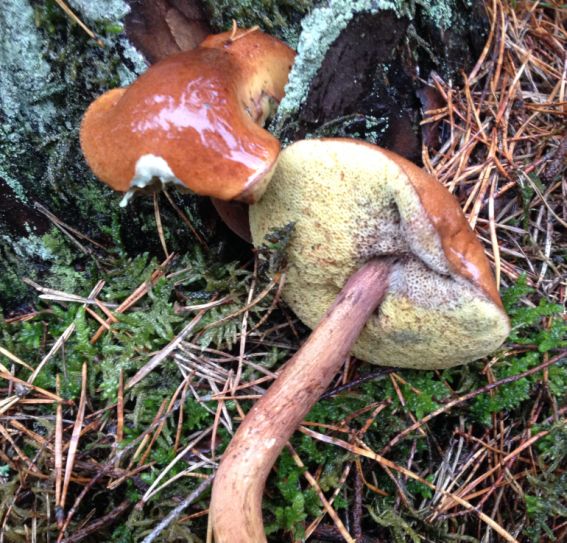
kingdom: Fungi
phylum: Basidiomycota
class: Agaricomycetes
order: Boletales
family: Boletaceae
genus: Imleria
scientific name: Imleria badia
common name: brunstokket rørhat
